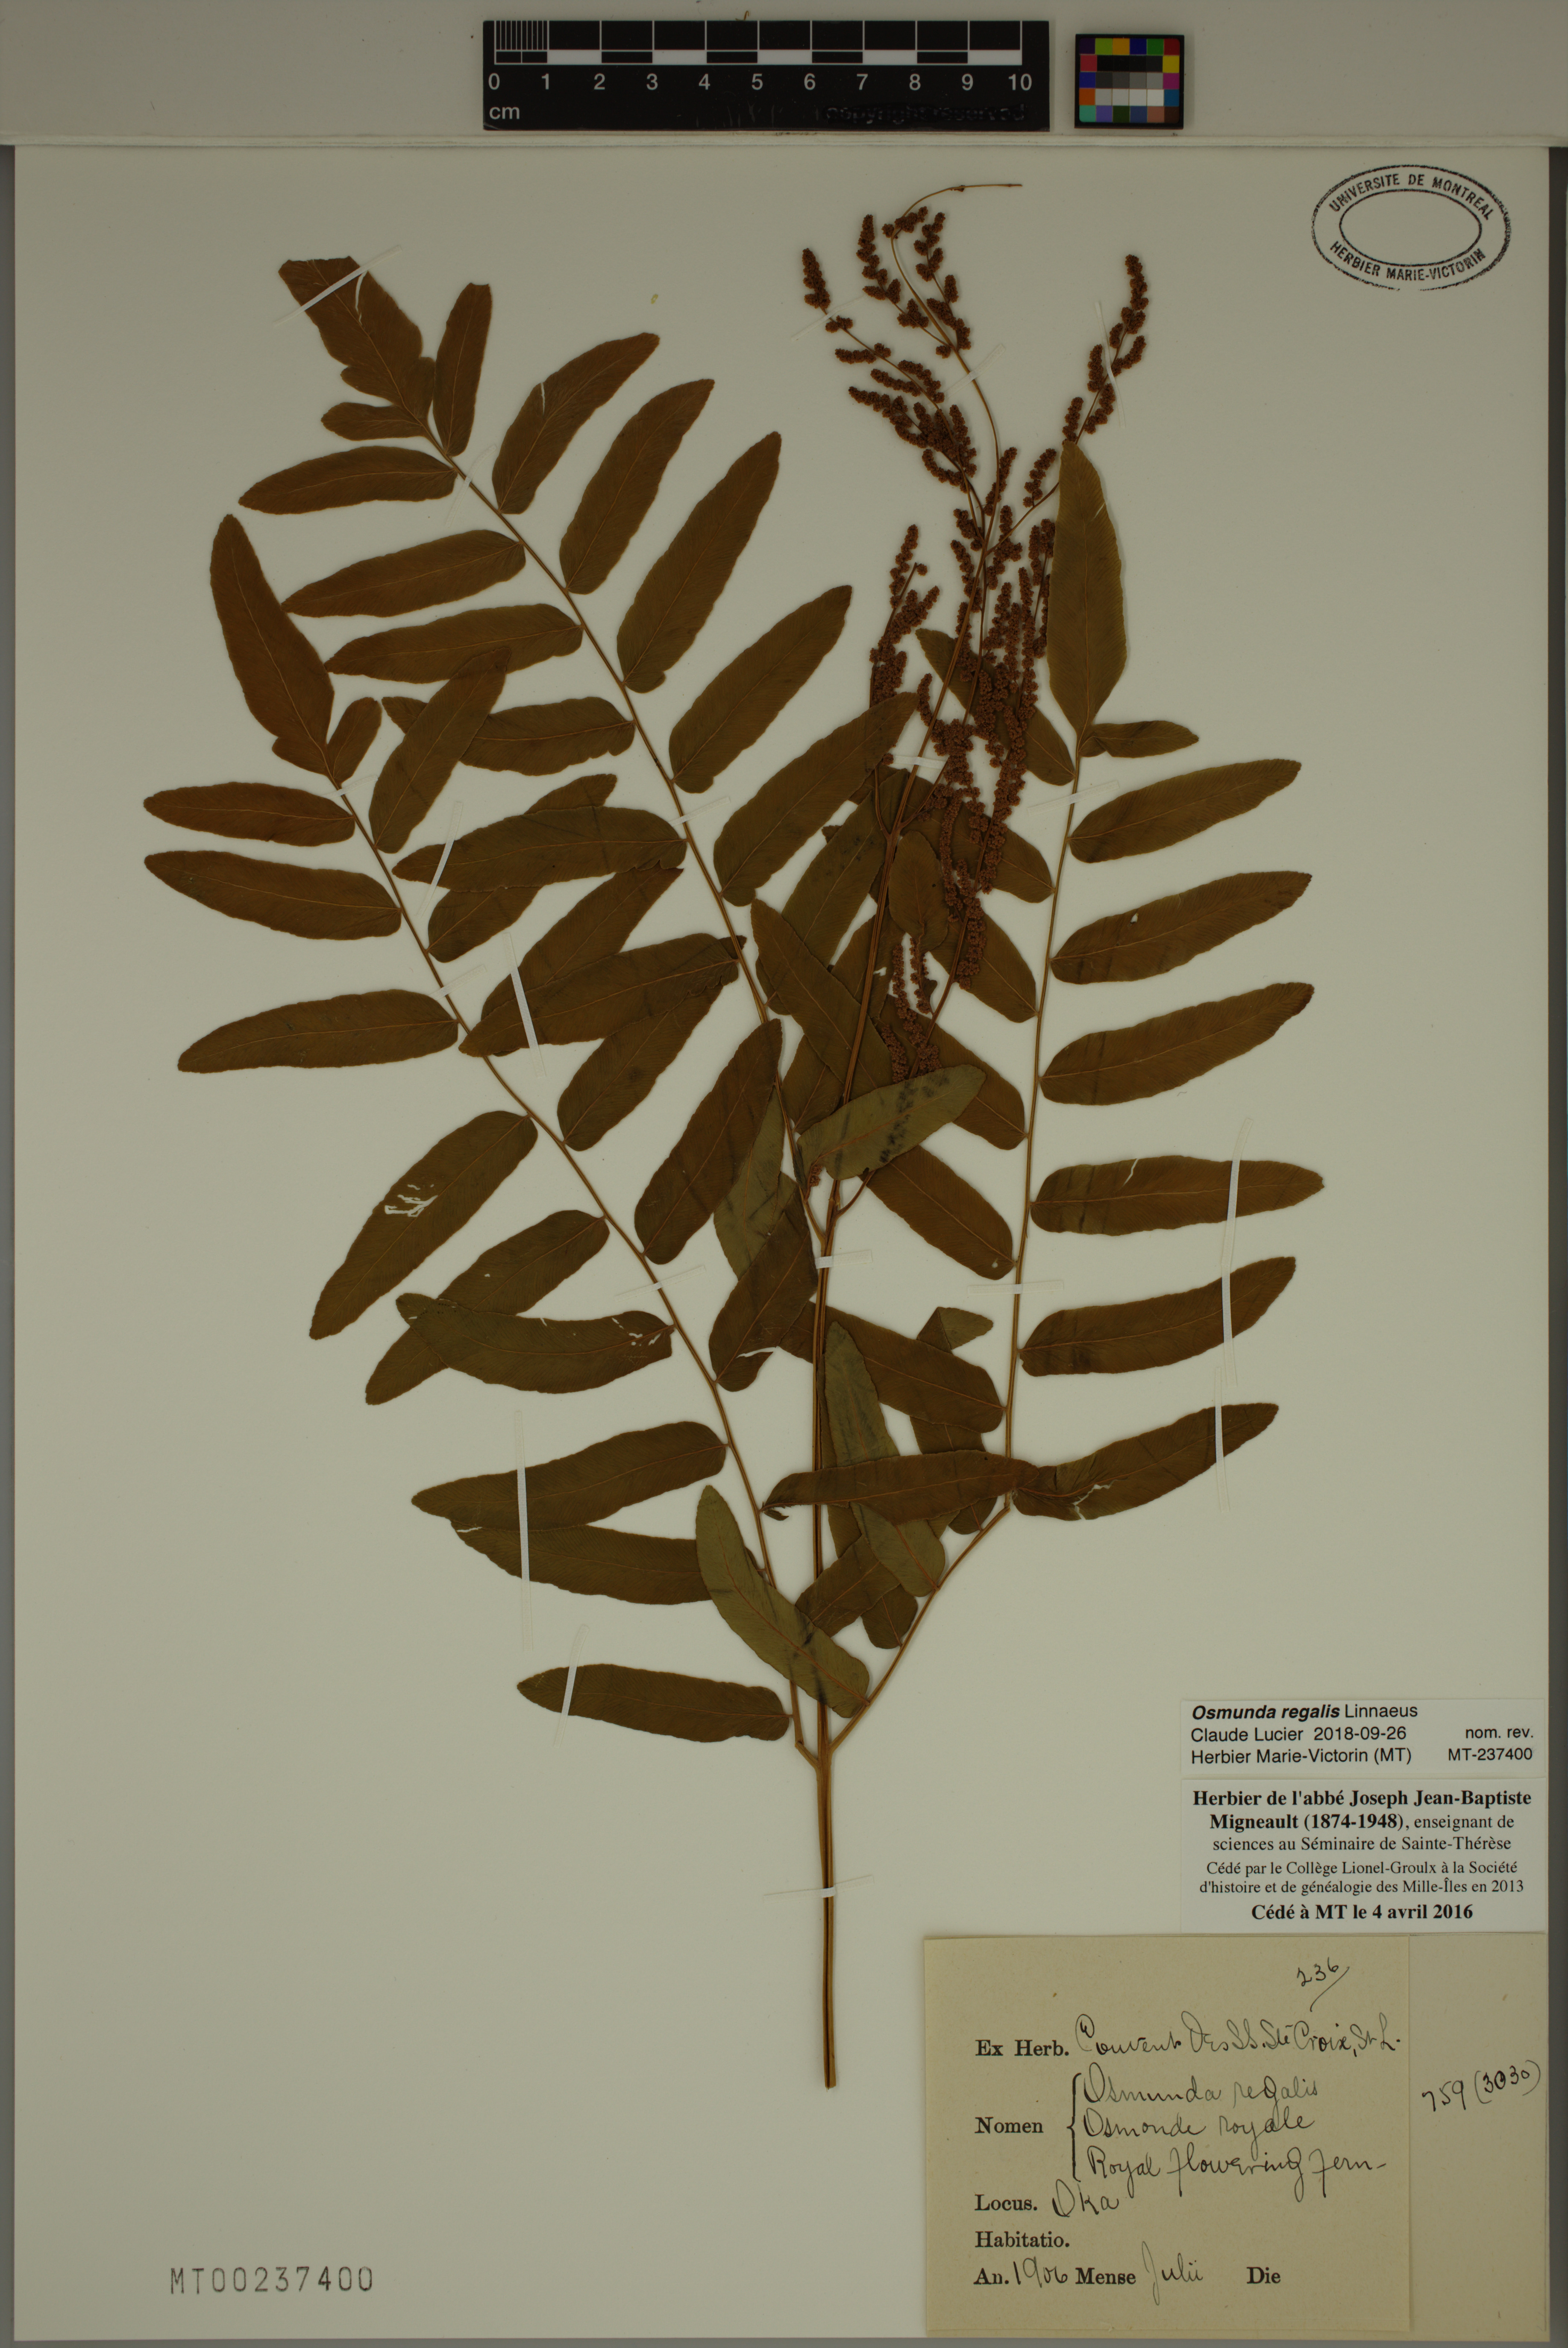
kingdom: Plantae
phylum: Tracheophyta
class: Polypodiopsida
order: Osmundales
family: Osmundaceae
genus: Osmunda
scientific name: Osmunda regalis
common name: Royal fern
